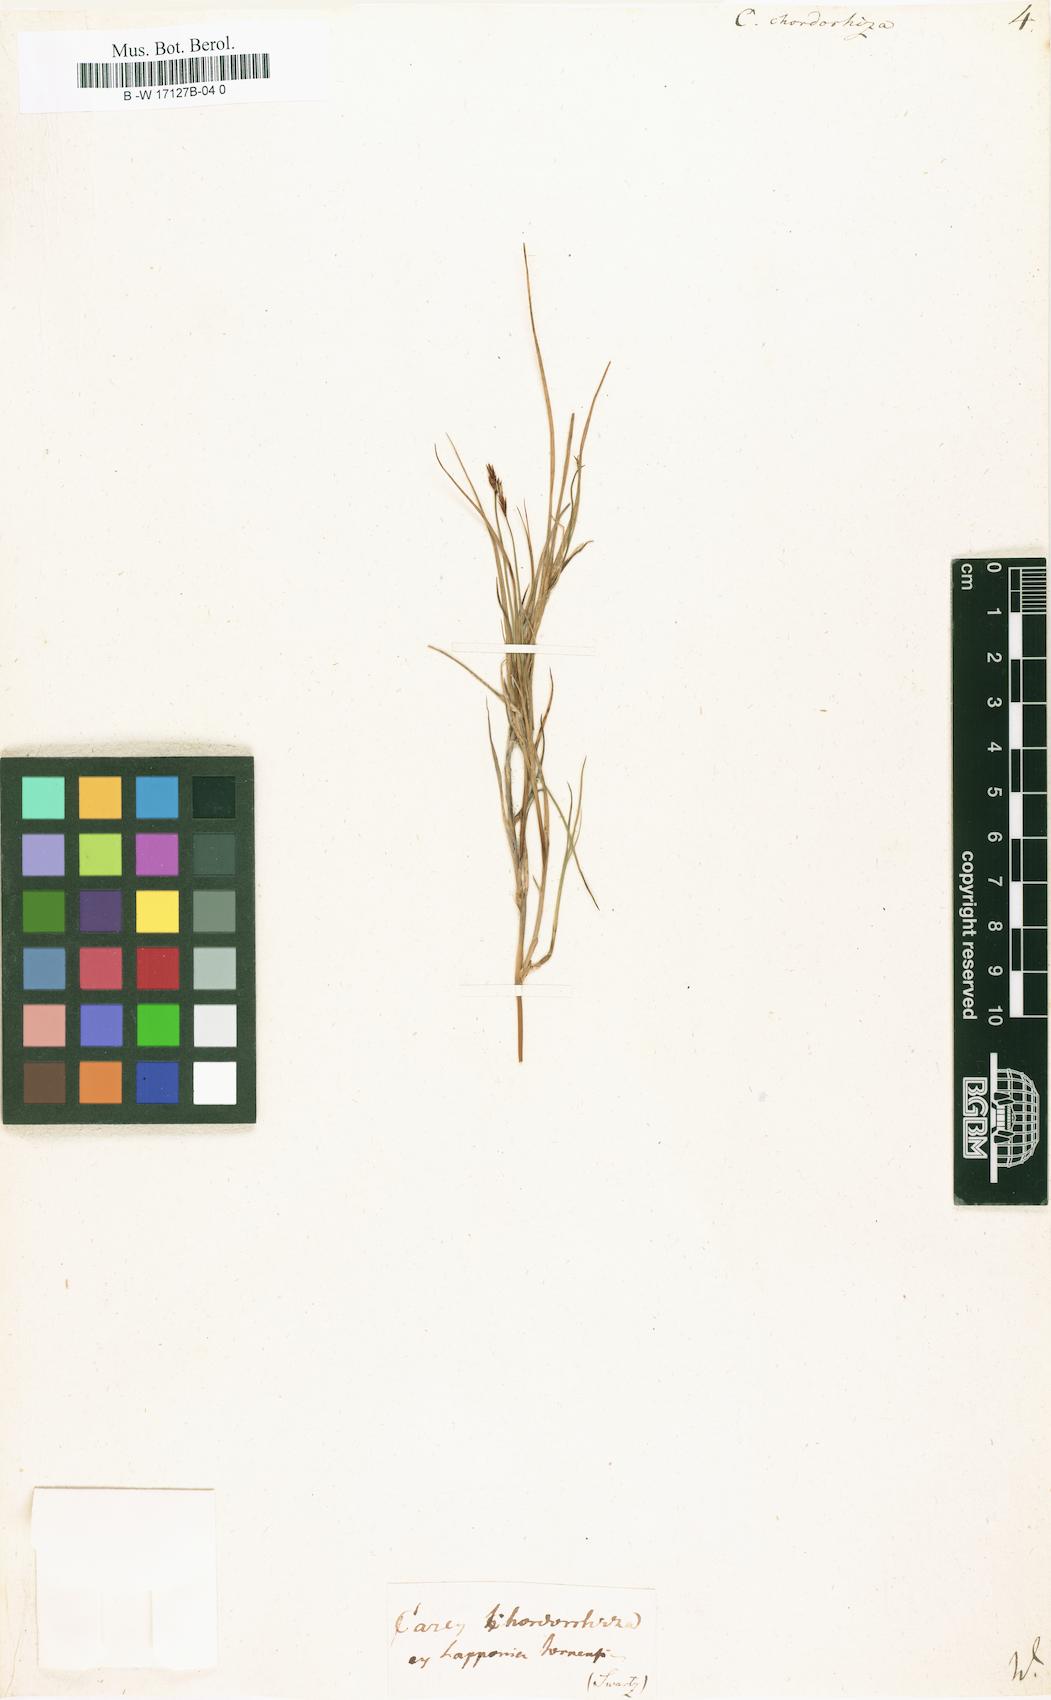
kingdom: Plantae
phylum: Tracheophyta
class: Liliopsida
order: Poales
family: Cyperaceae
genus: Carex
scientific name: Carex chordorrhiza
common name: String sedge
